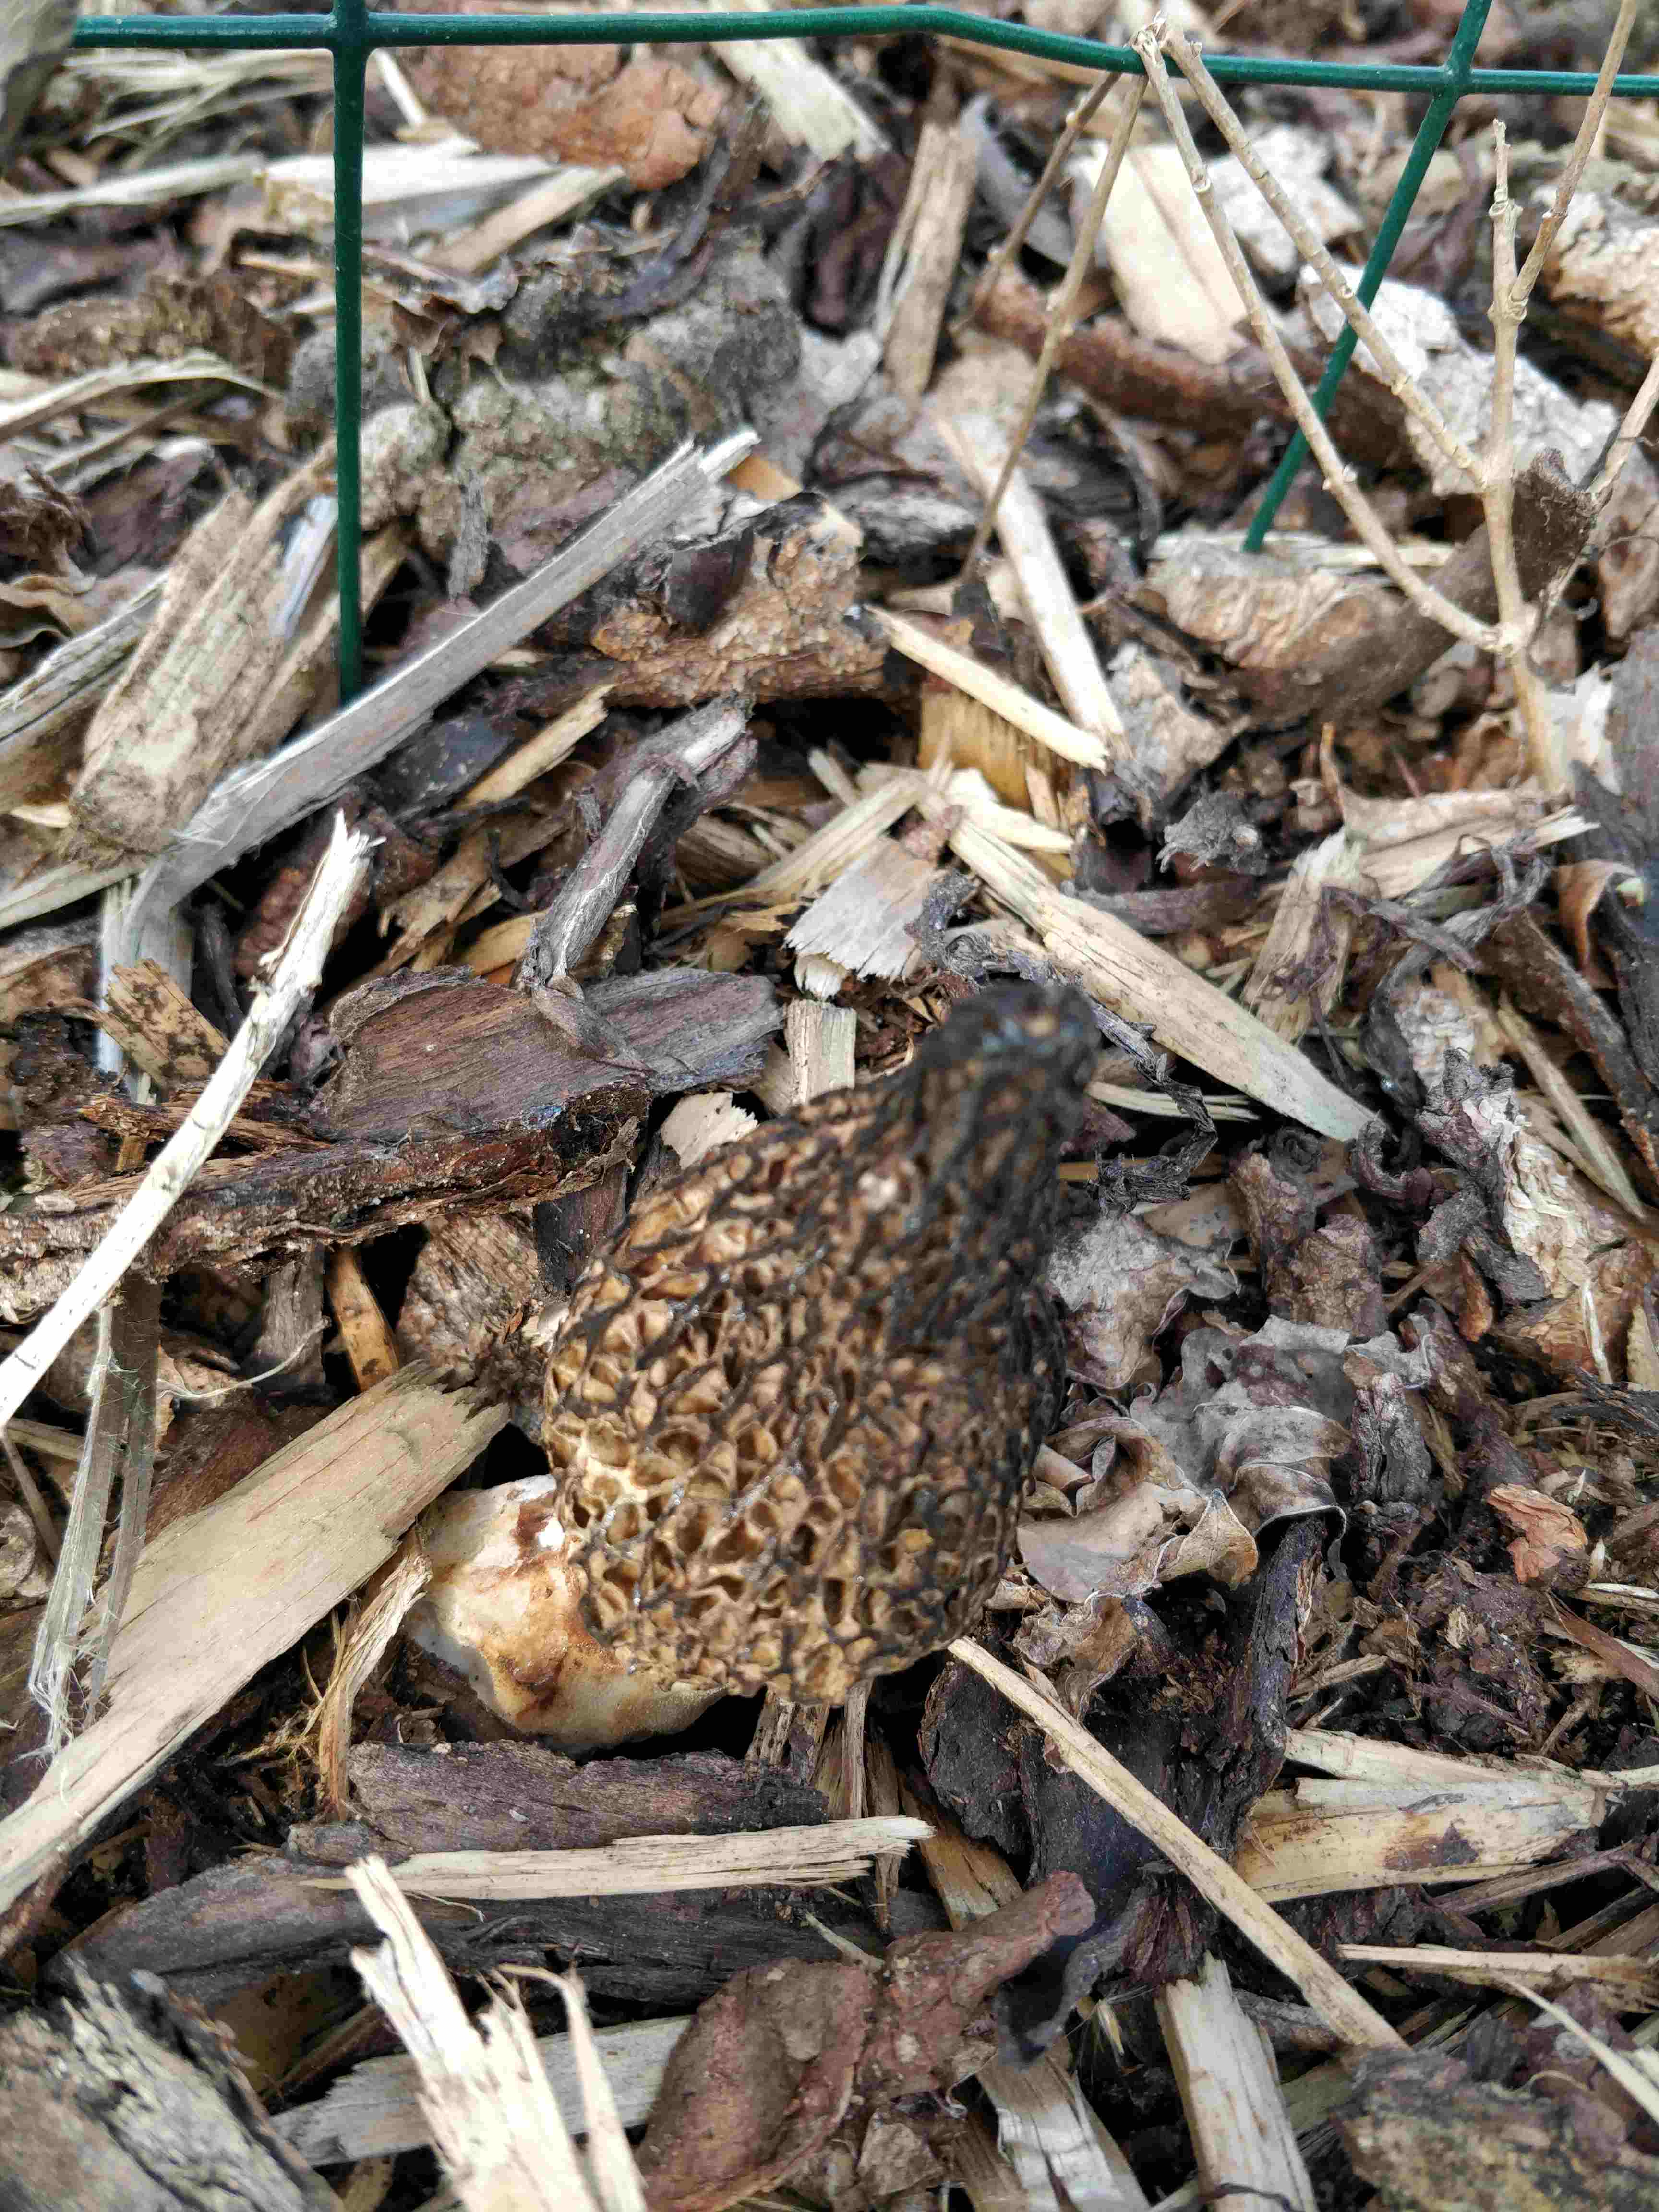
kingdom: Fungi
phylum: Ascomycota
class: Pezizomycetes
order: Pezizales
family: Morchellaceae
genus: Morchella
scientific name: Morchella importuna
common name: Landscaping black morel
